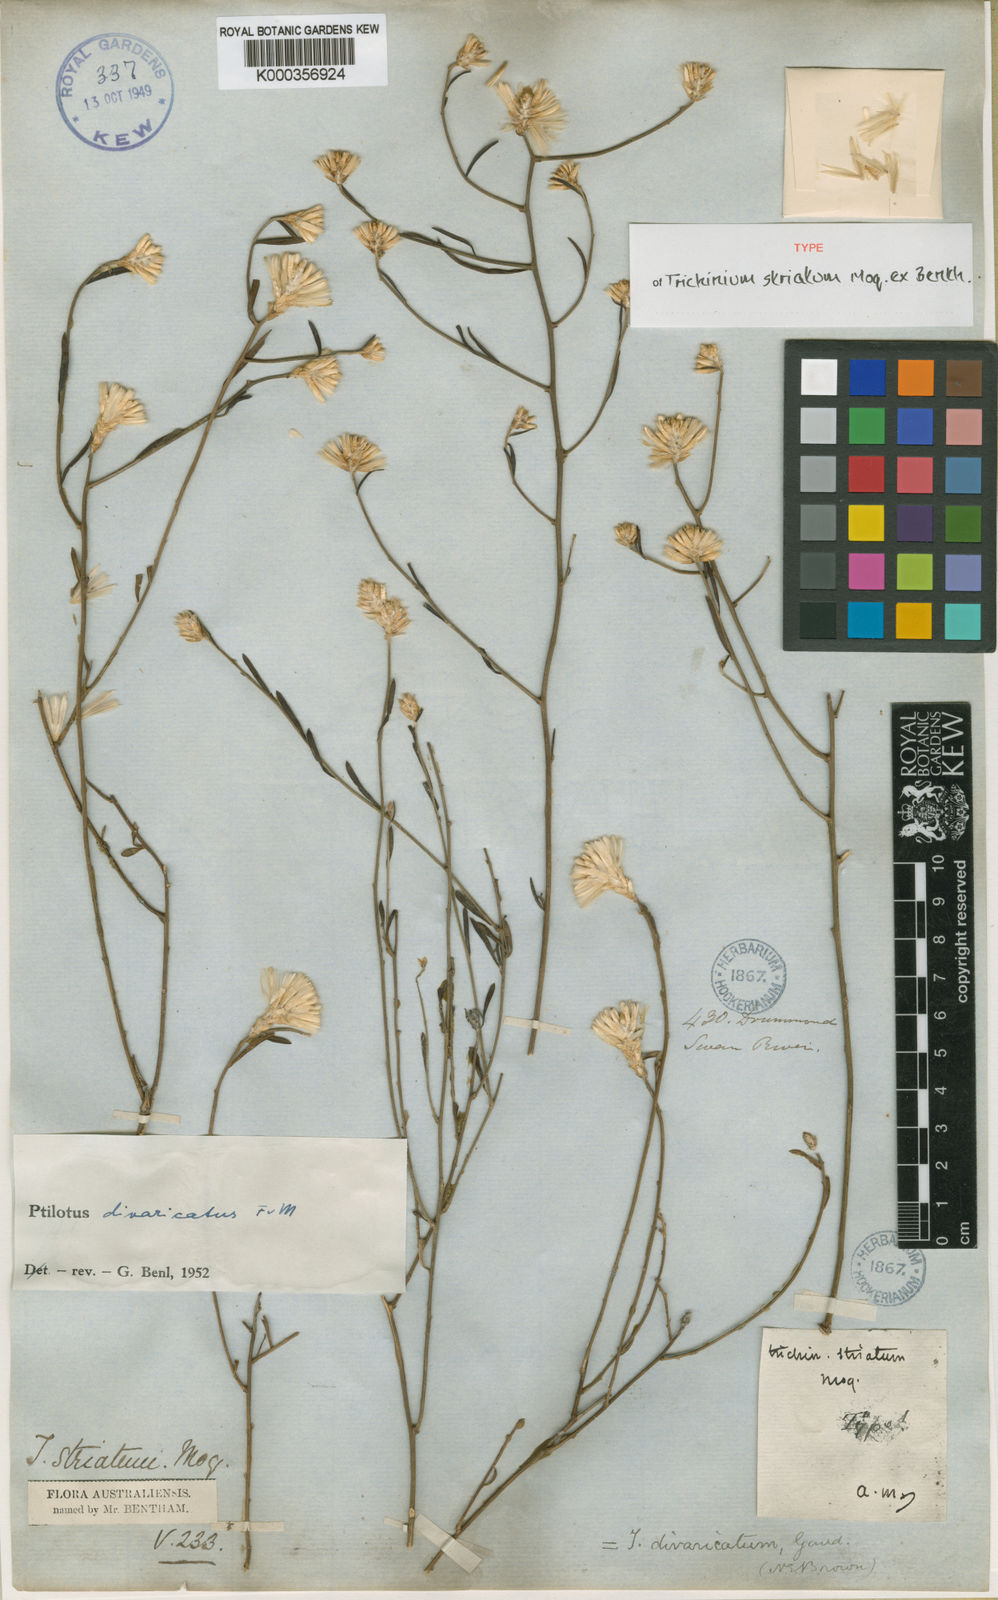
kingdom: Plantae
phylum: Tracheophyta
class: Magnoliopsida
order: Caryophyllales
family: Amaranthaceae
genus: Ptilotus
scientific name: Ptilotus divaricatus
